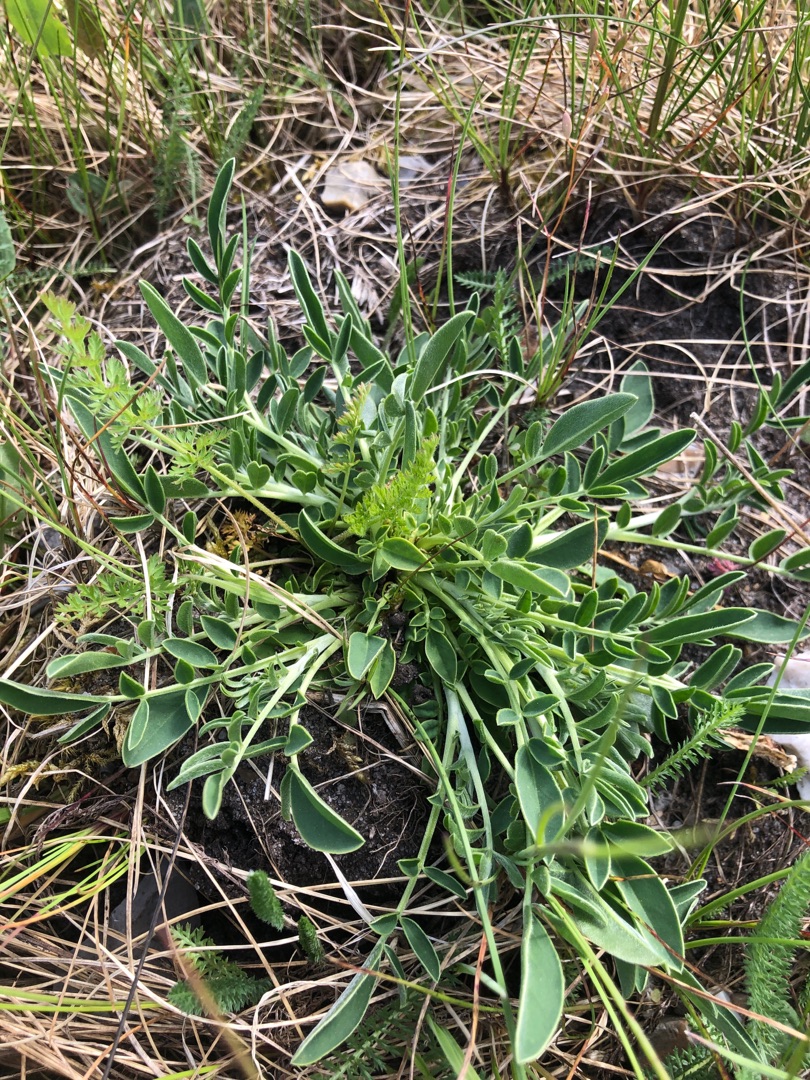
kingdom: Plantae
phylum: Tracheophyta
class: Magnoliopsida
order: Fabales
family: Fabaceae
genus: Anthyllis
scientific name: Anthyllis vulneraria
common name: Rundbælg
